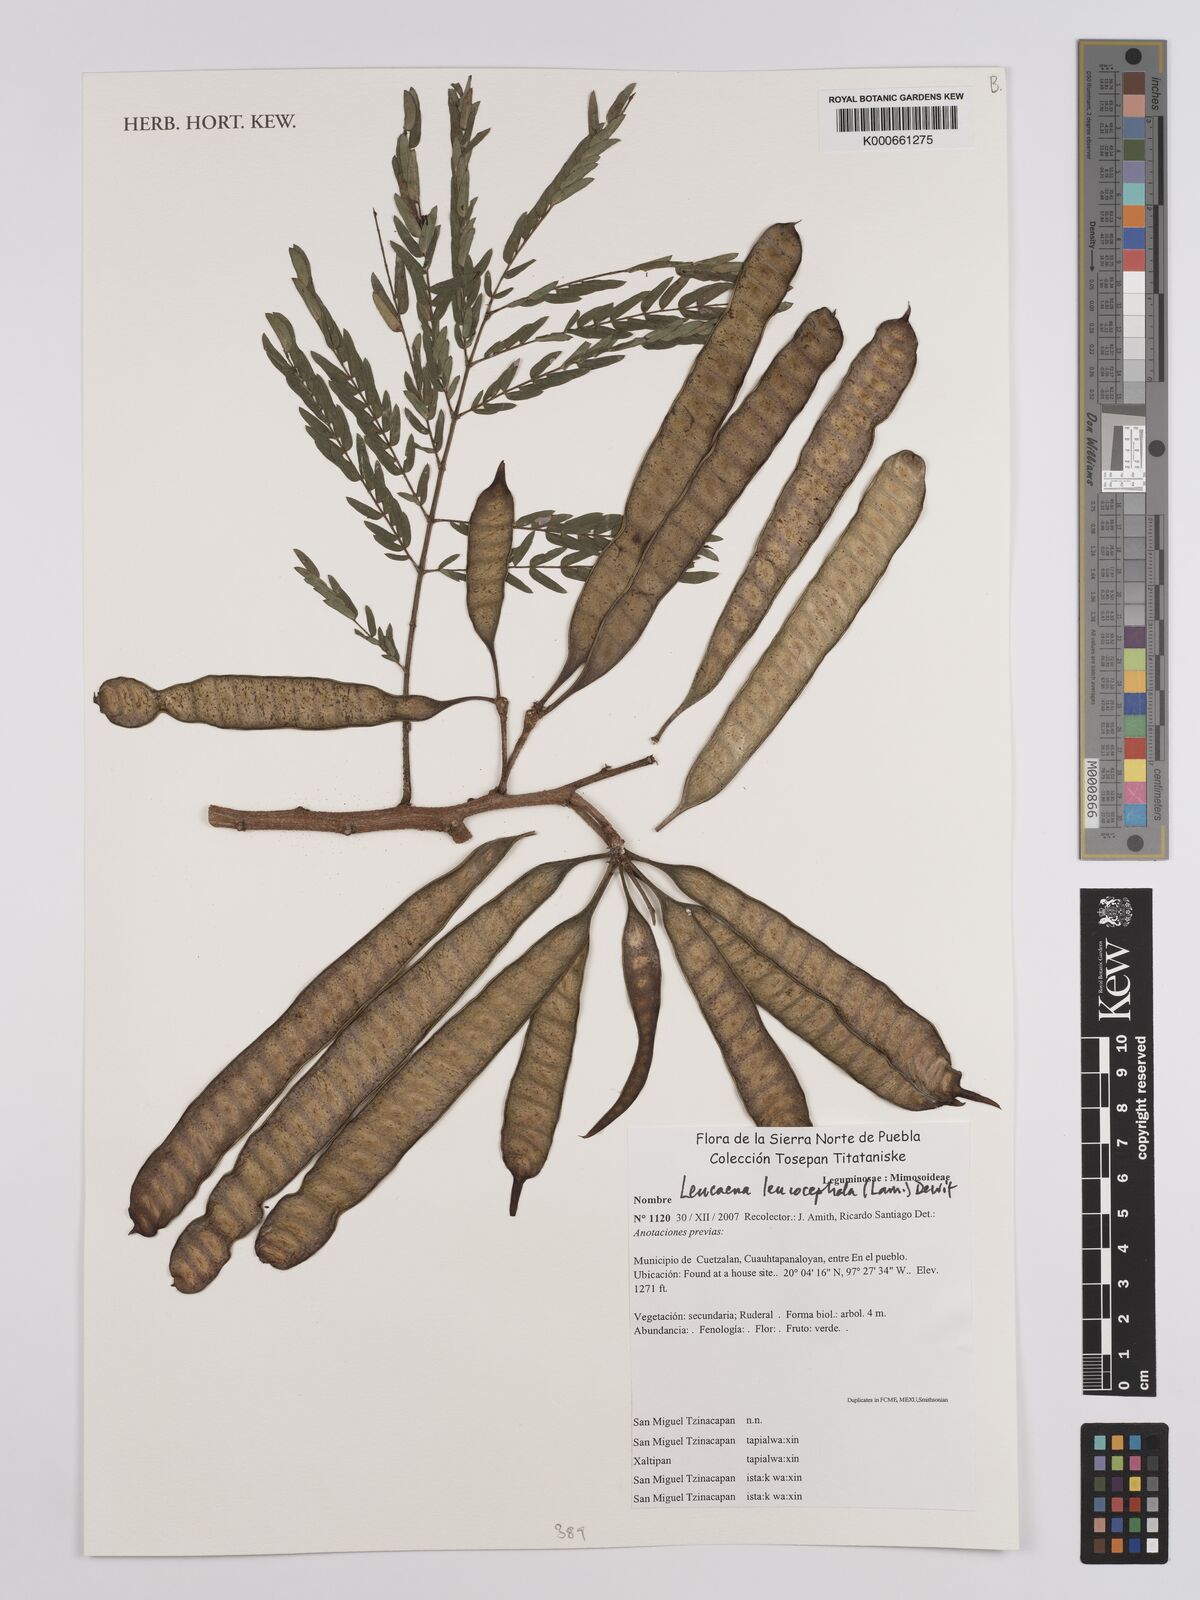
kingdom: Plantae
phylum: Tracheophyta
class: Magnoliopsida
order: Fabales
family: Fabaceae
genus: Leucaena
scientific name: Leucaena leucocephala
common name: White leadtree
